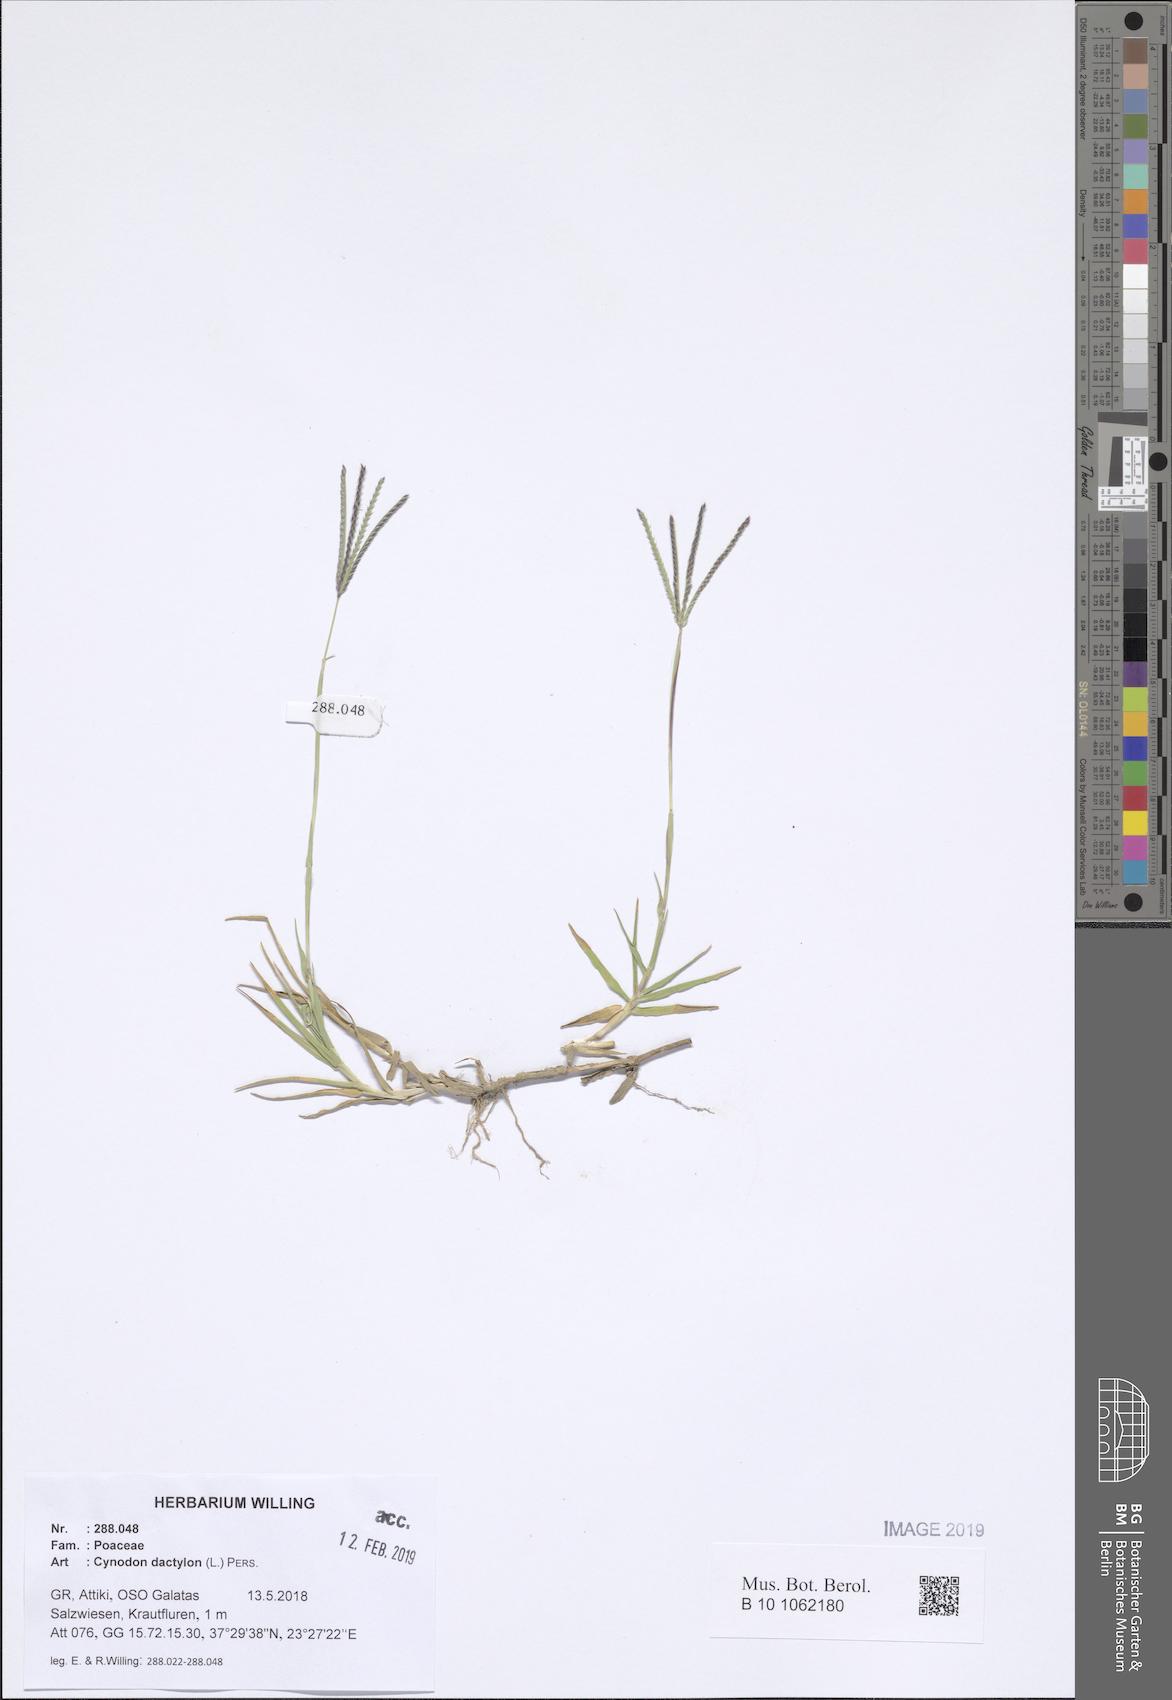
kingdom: Plantae
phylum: Tracheophyta
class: Liliopsida
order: Poales
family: Poaceae
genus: Cynodon
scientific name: Cynodon dactylon
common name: Bermuda grass
